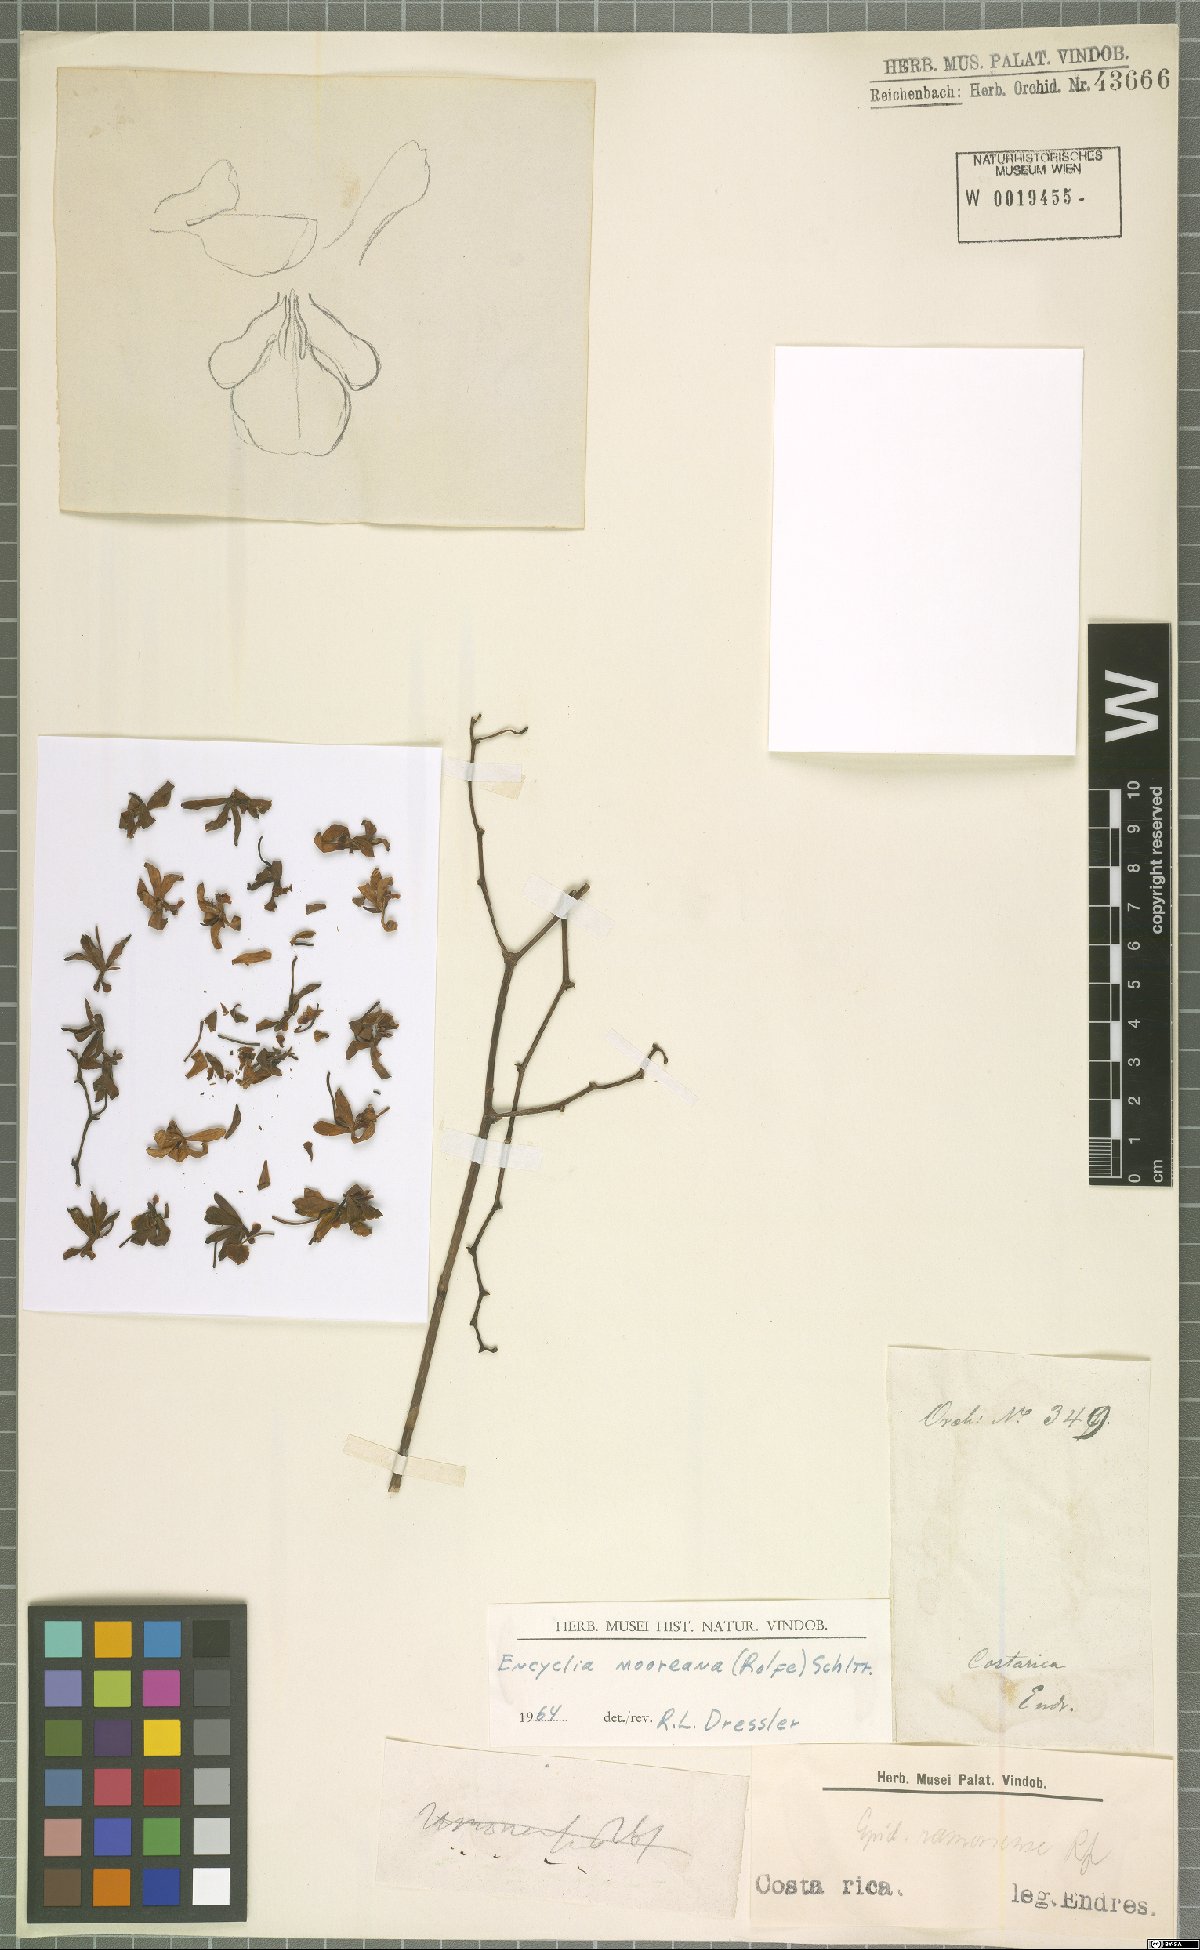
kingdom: Plantae
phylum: Tracheophyta
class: Liliopsida
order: Asparagales
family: Orchidaceae
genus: Encyclia
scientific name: Encyclia mooreana
